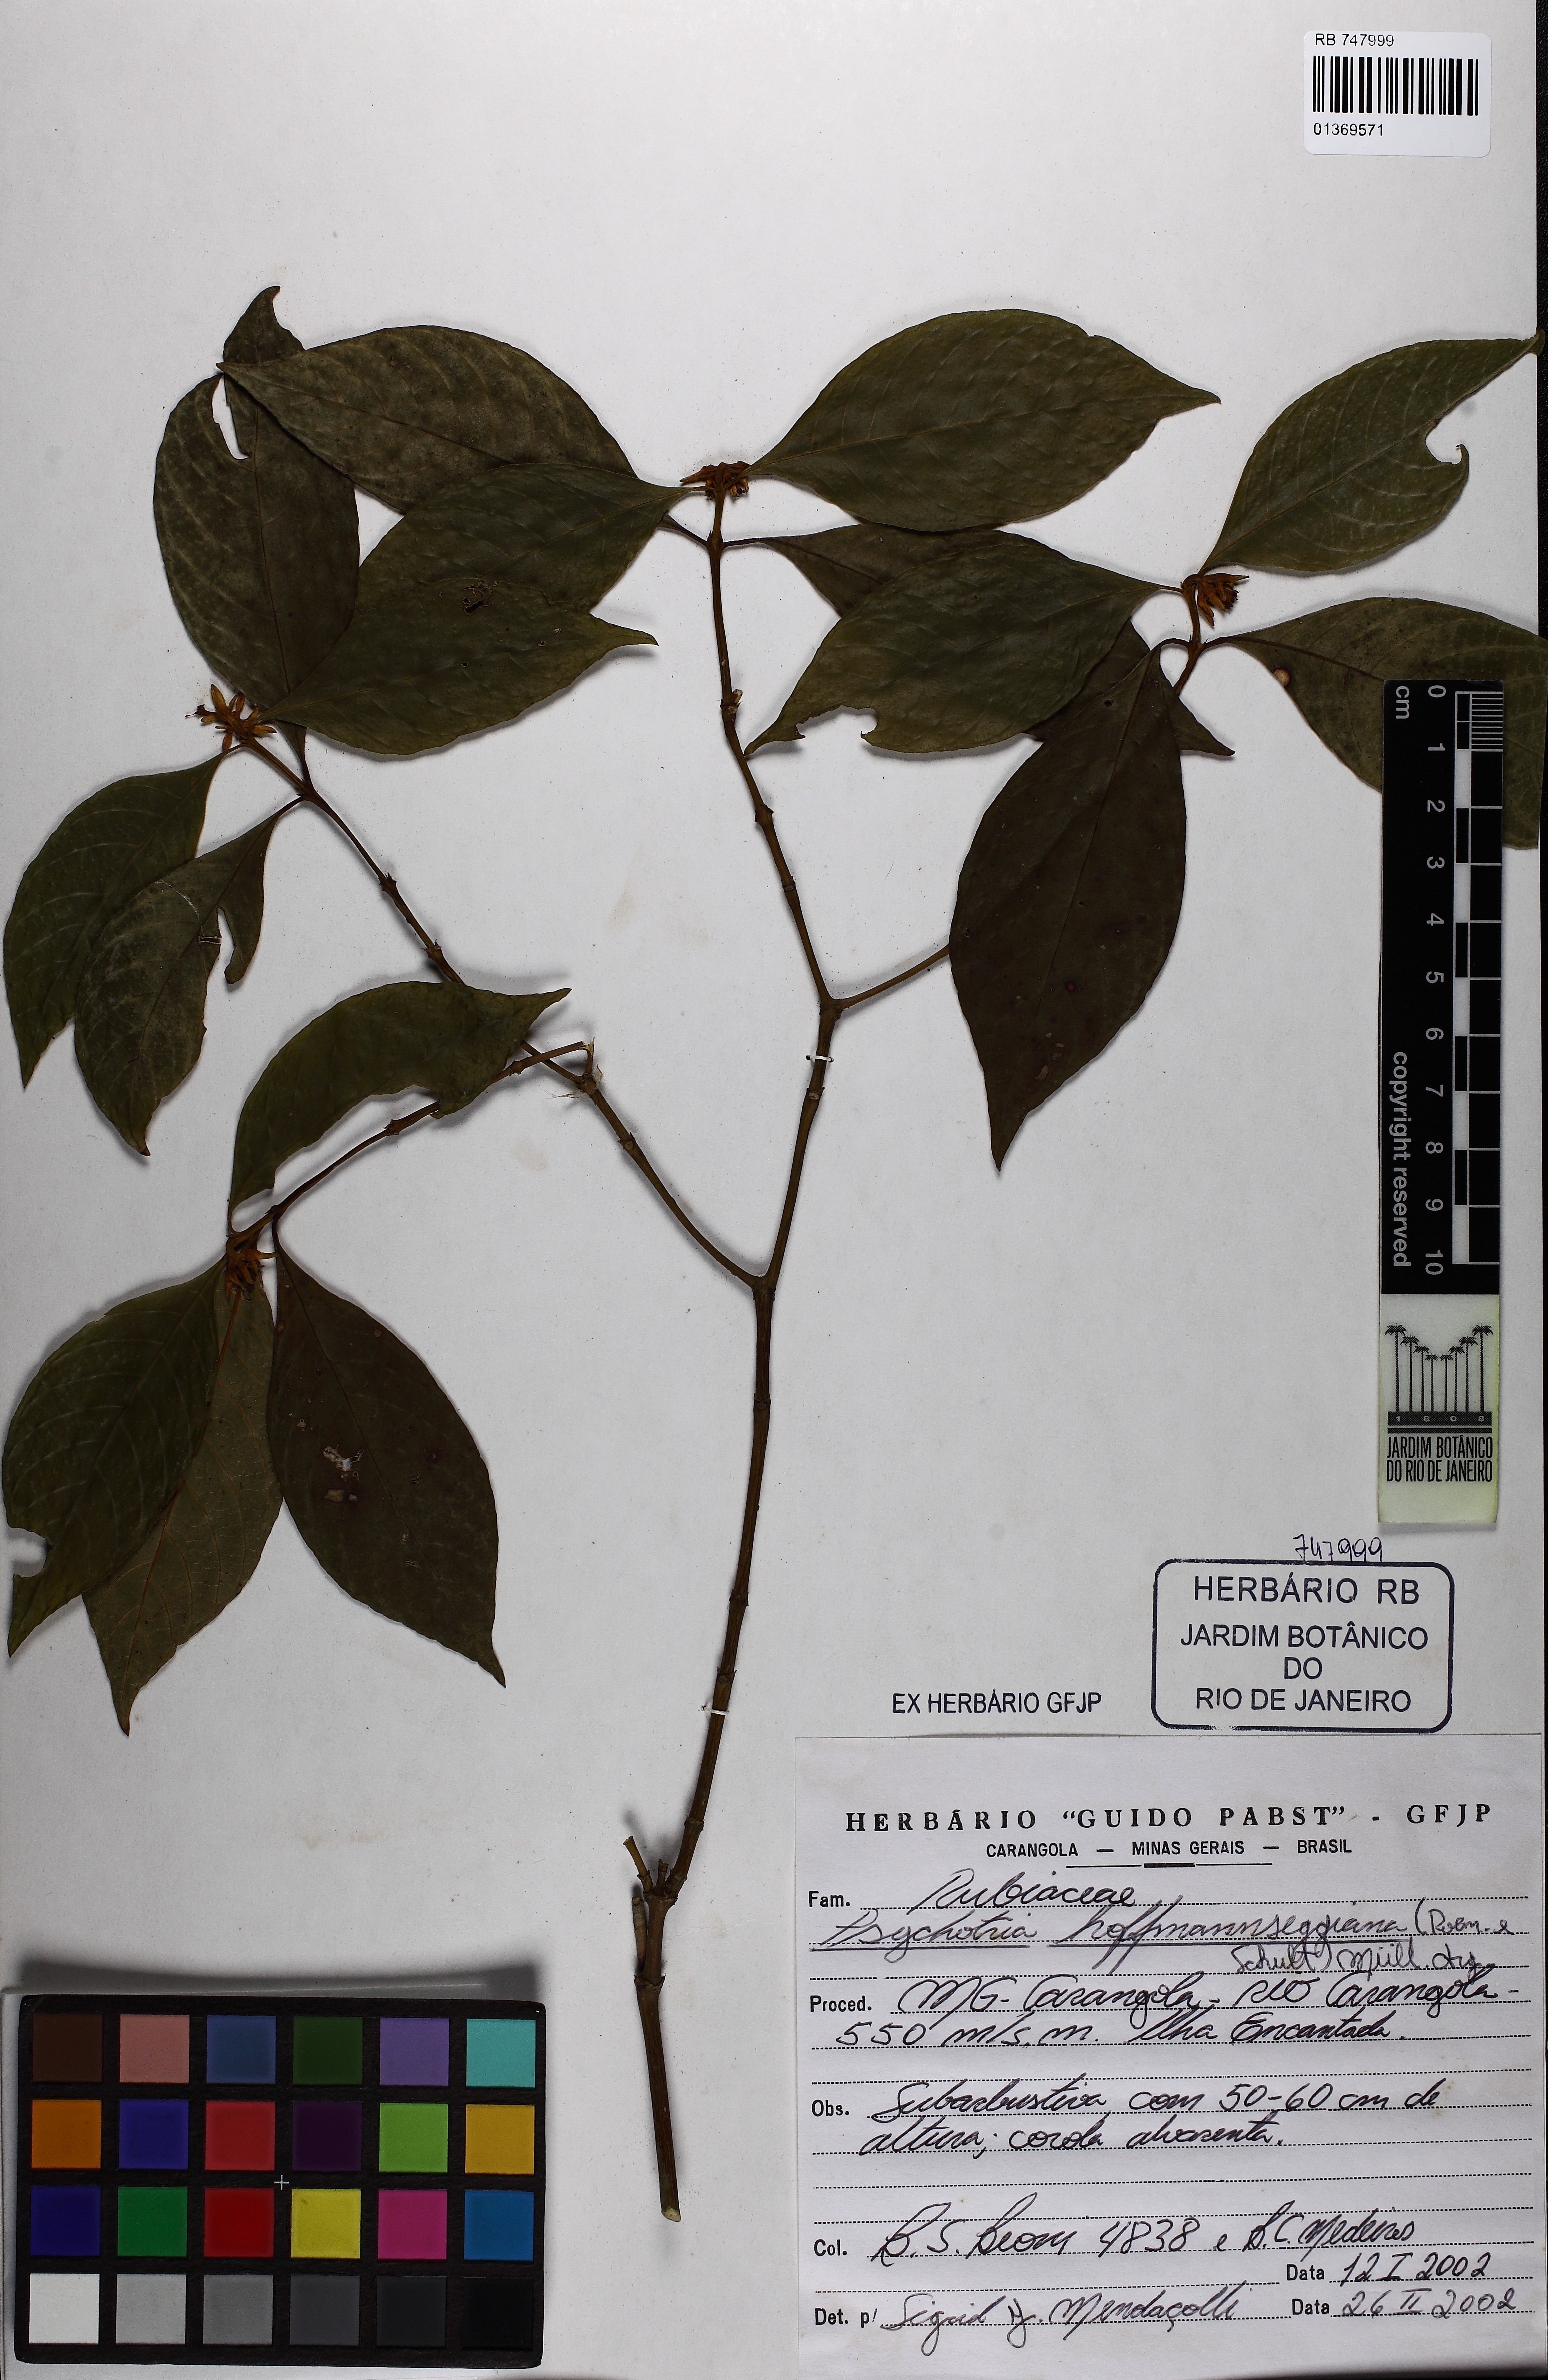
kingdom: Plantae
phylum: Tracheophyta
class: Magnoliopsida
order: Gentianales
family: Rubiaceae
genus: Palicourea
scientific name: Palicourea hoffmannseggiana
